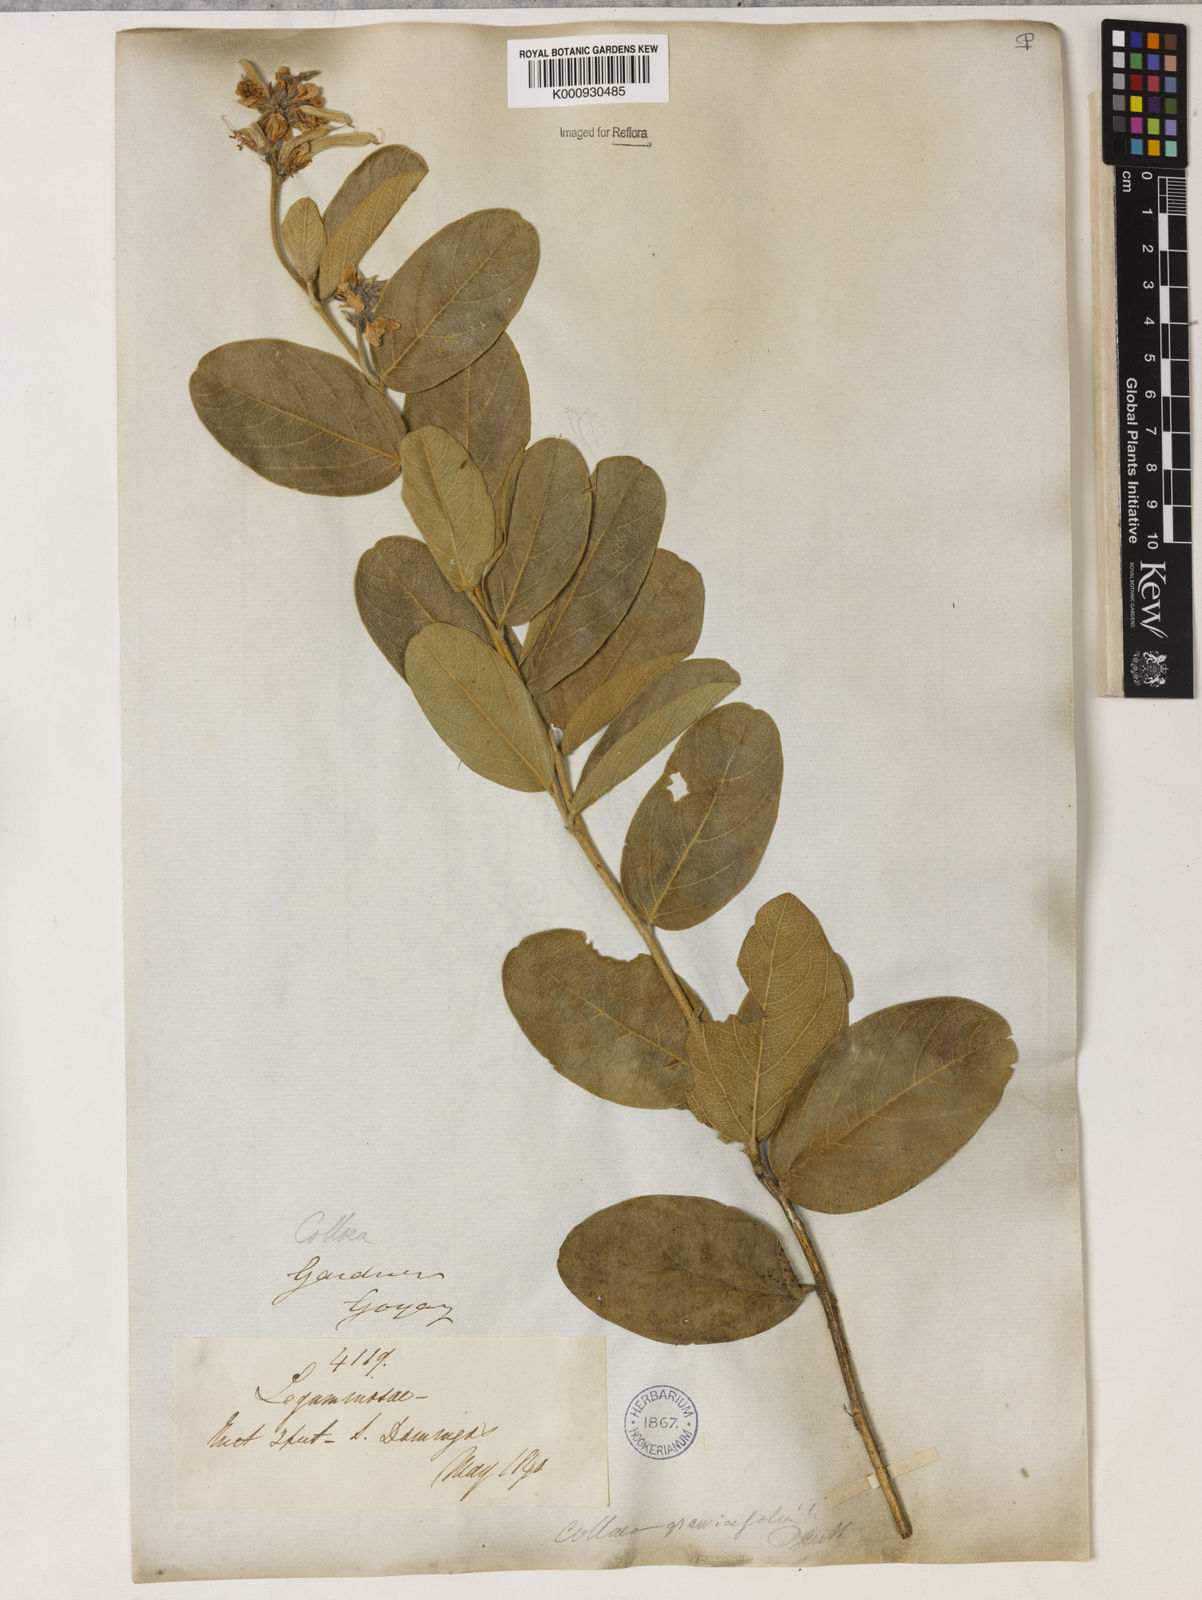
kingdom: Plantae
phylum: Tracheophyta
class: Magnoliopsida
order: Fabales
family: Fabaceae
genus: Galactia
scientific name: Galactia
